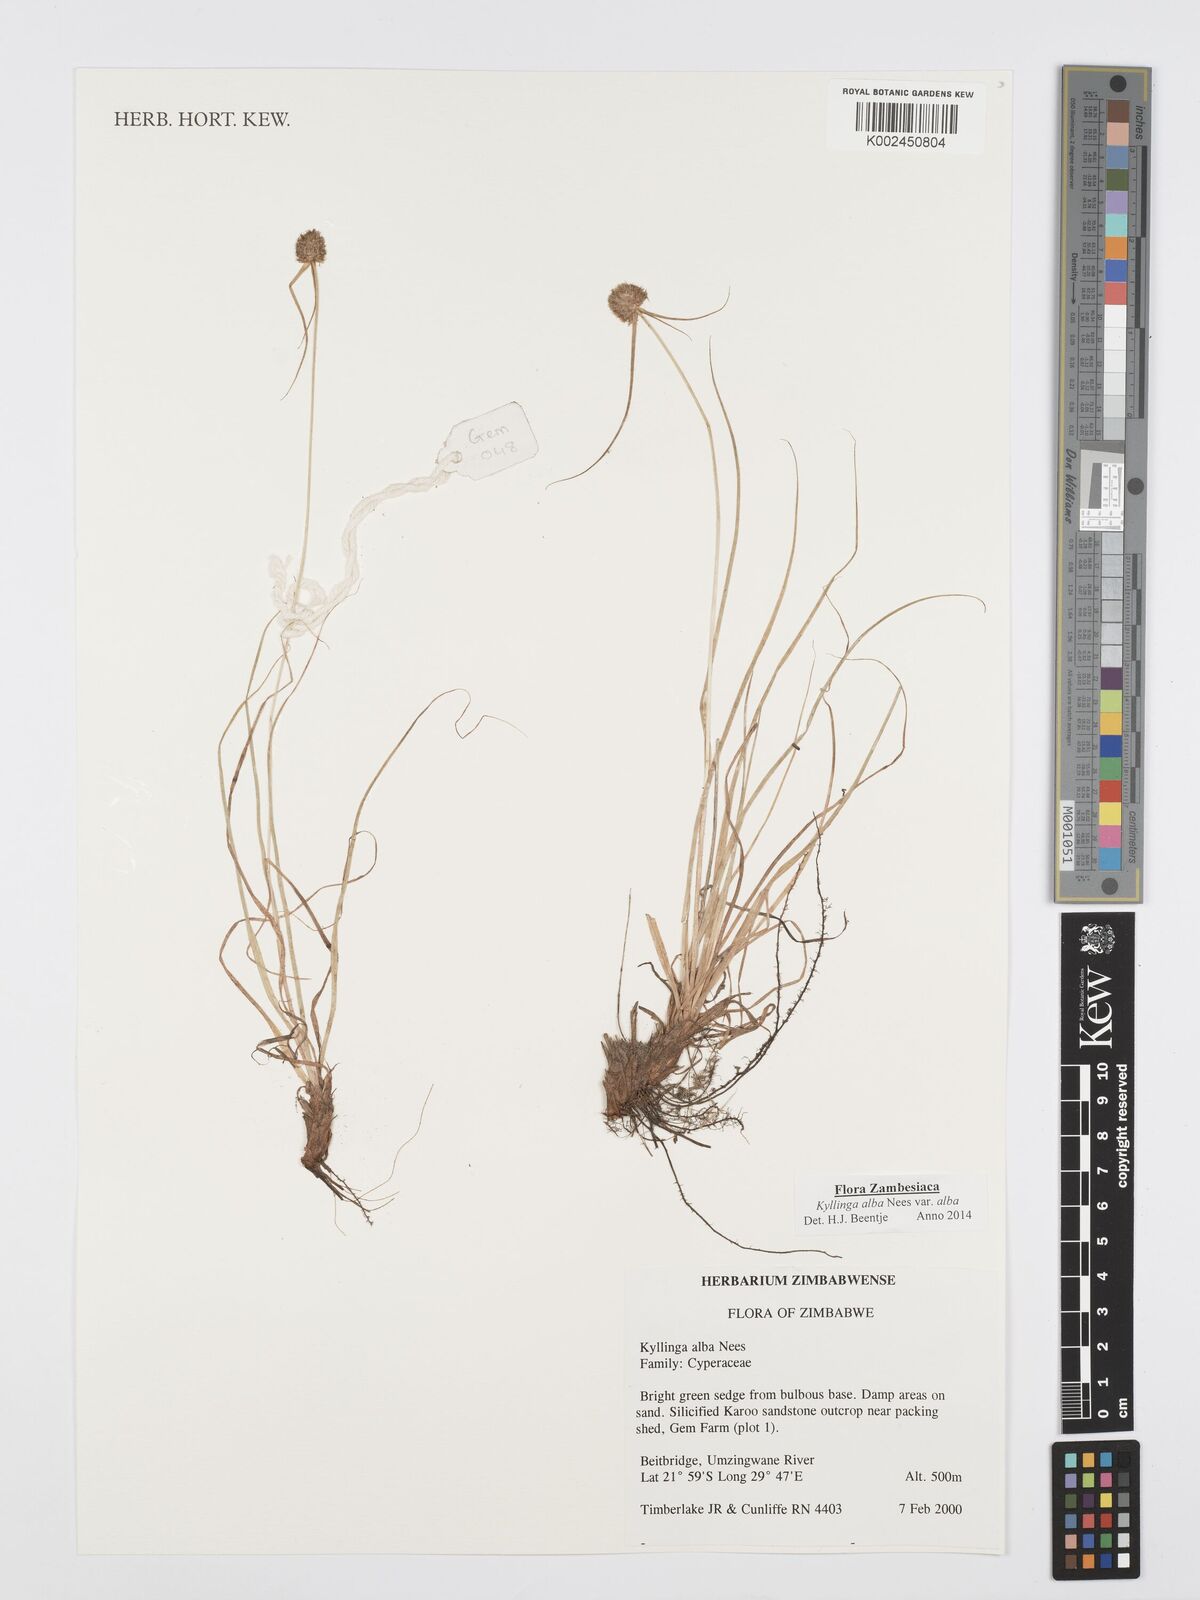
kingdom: Plantae
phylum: Tracheophyta
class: Liliopsida
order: Poales
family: Cyperaceae
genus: Cyperus
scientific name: Cyperus
